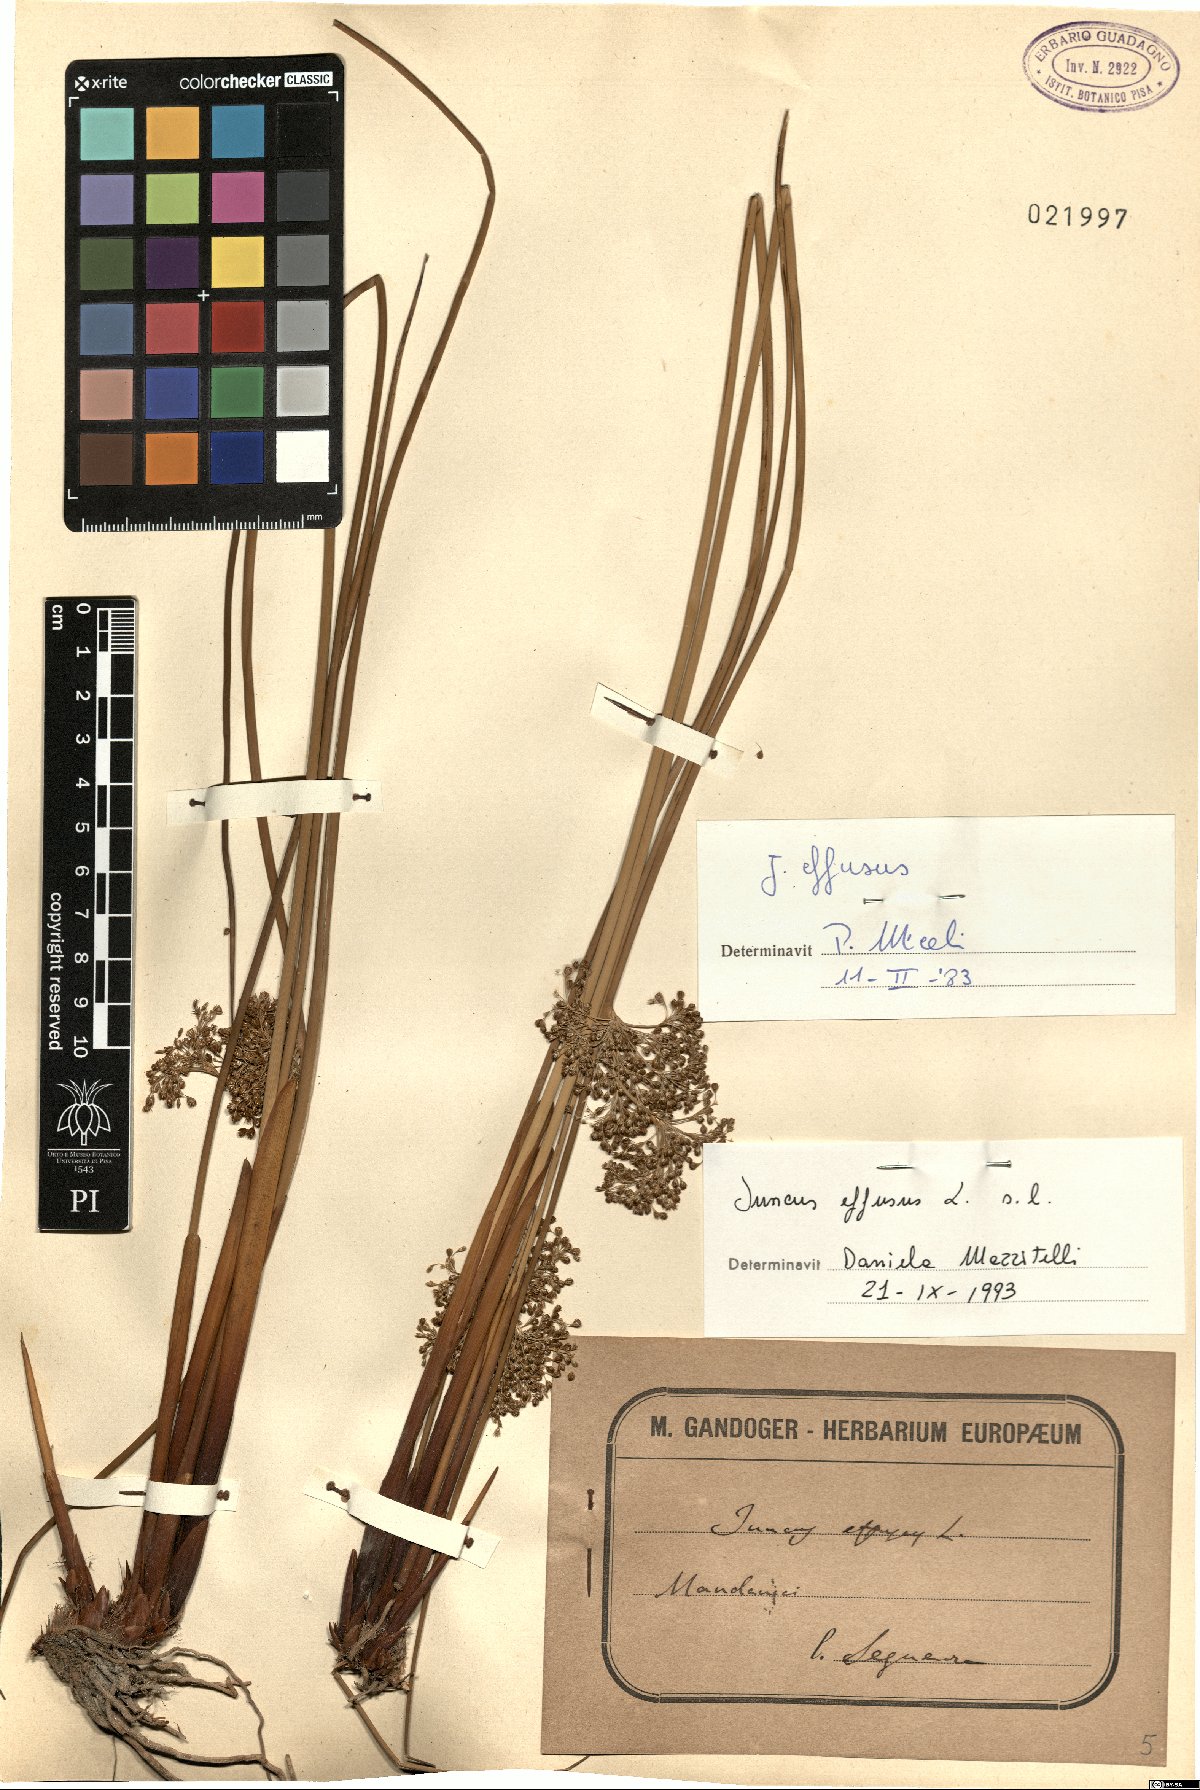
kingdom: Plantae
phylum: Tracheophyta
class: Liliopsida
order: Poales
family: Juncaceae
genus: Juncus
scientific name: Juncus effusus
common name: Soft rush
